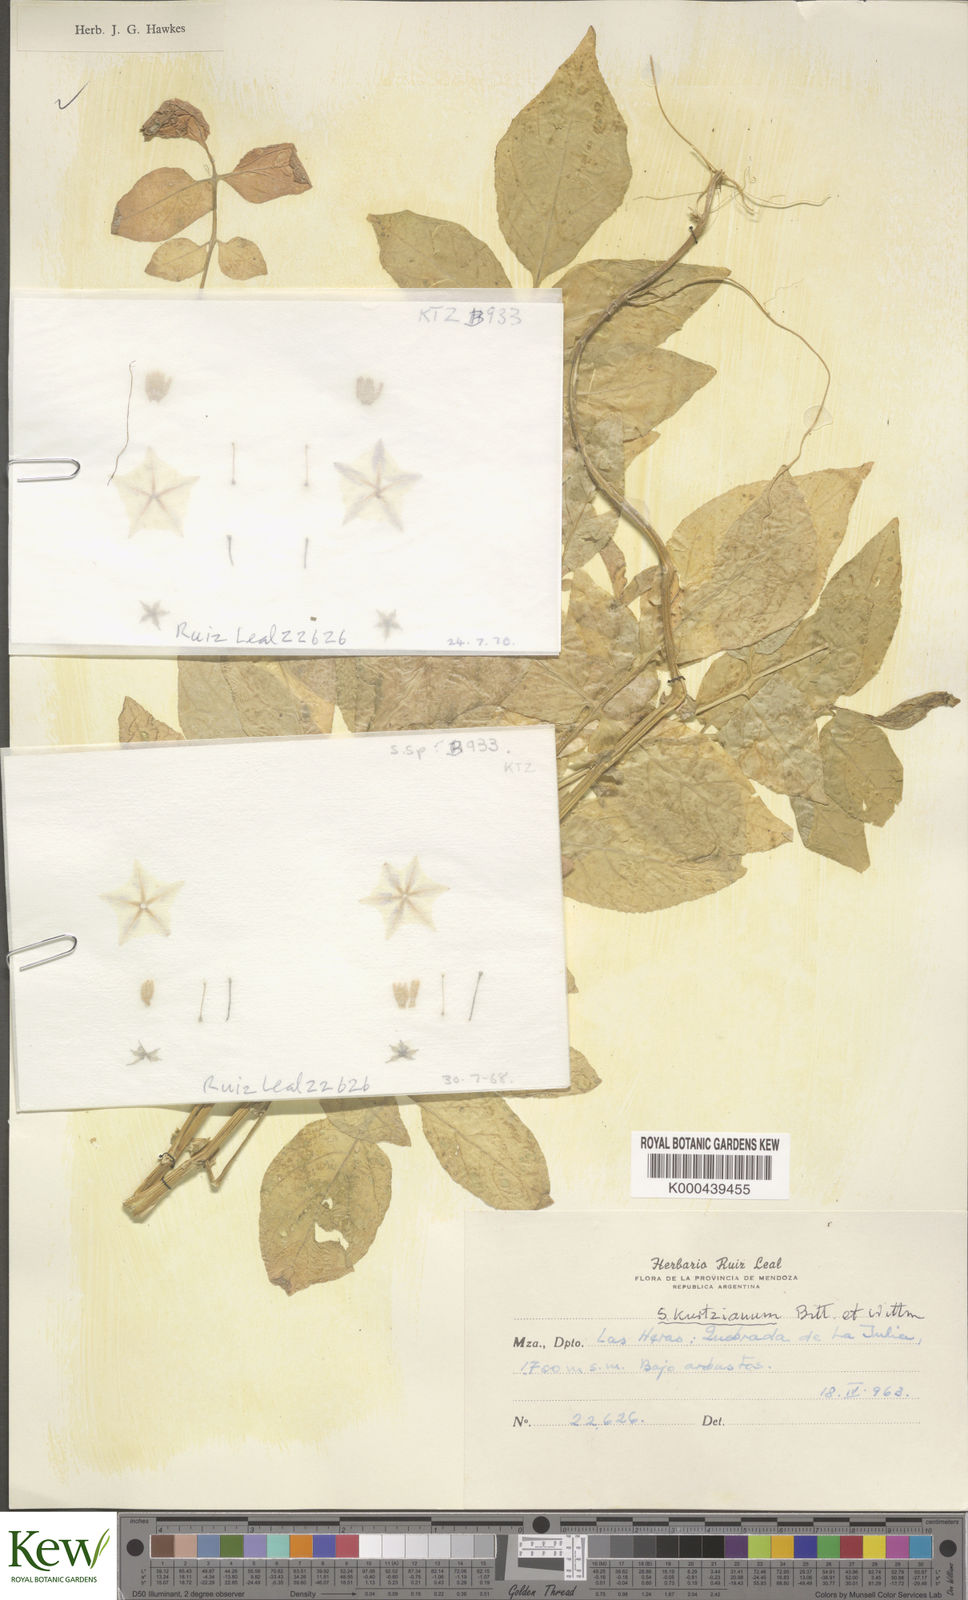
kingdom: Plantae
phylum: Tracheophyta
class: Magnoliopsida
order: Solanales
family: Solanaceae
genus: Solanum
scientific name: Solanum kurtzianum
